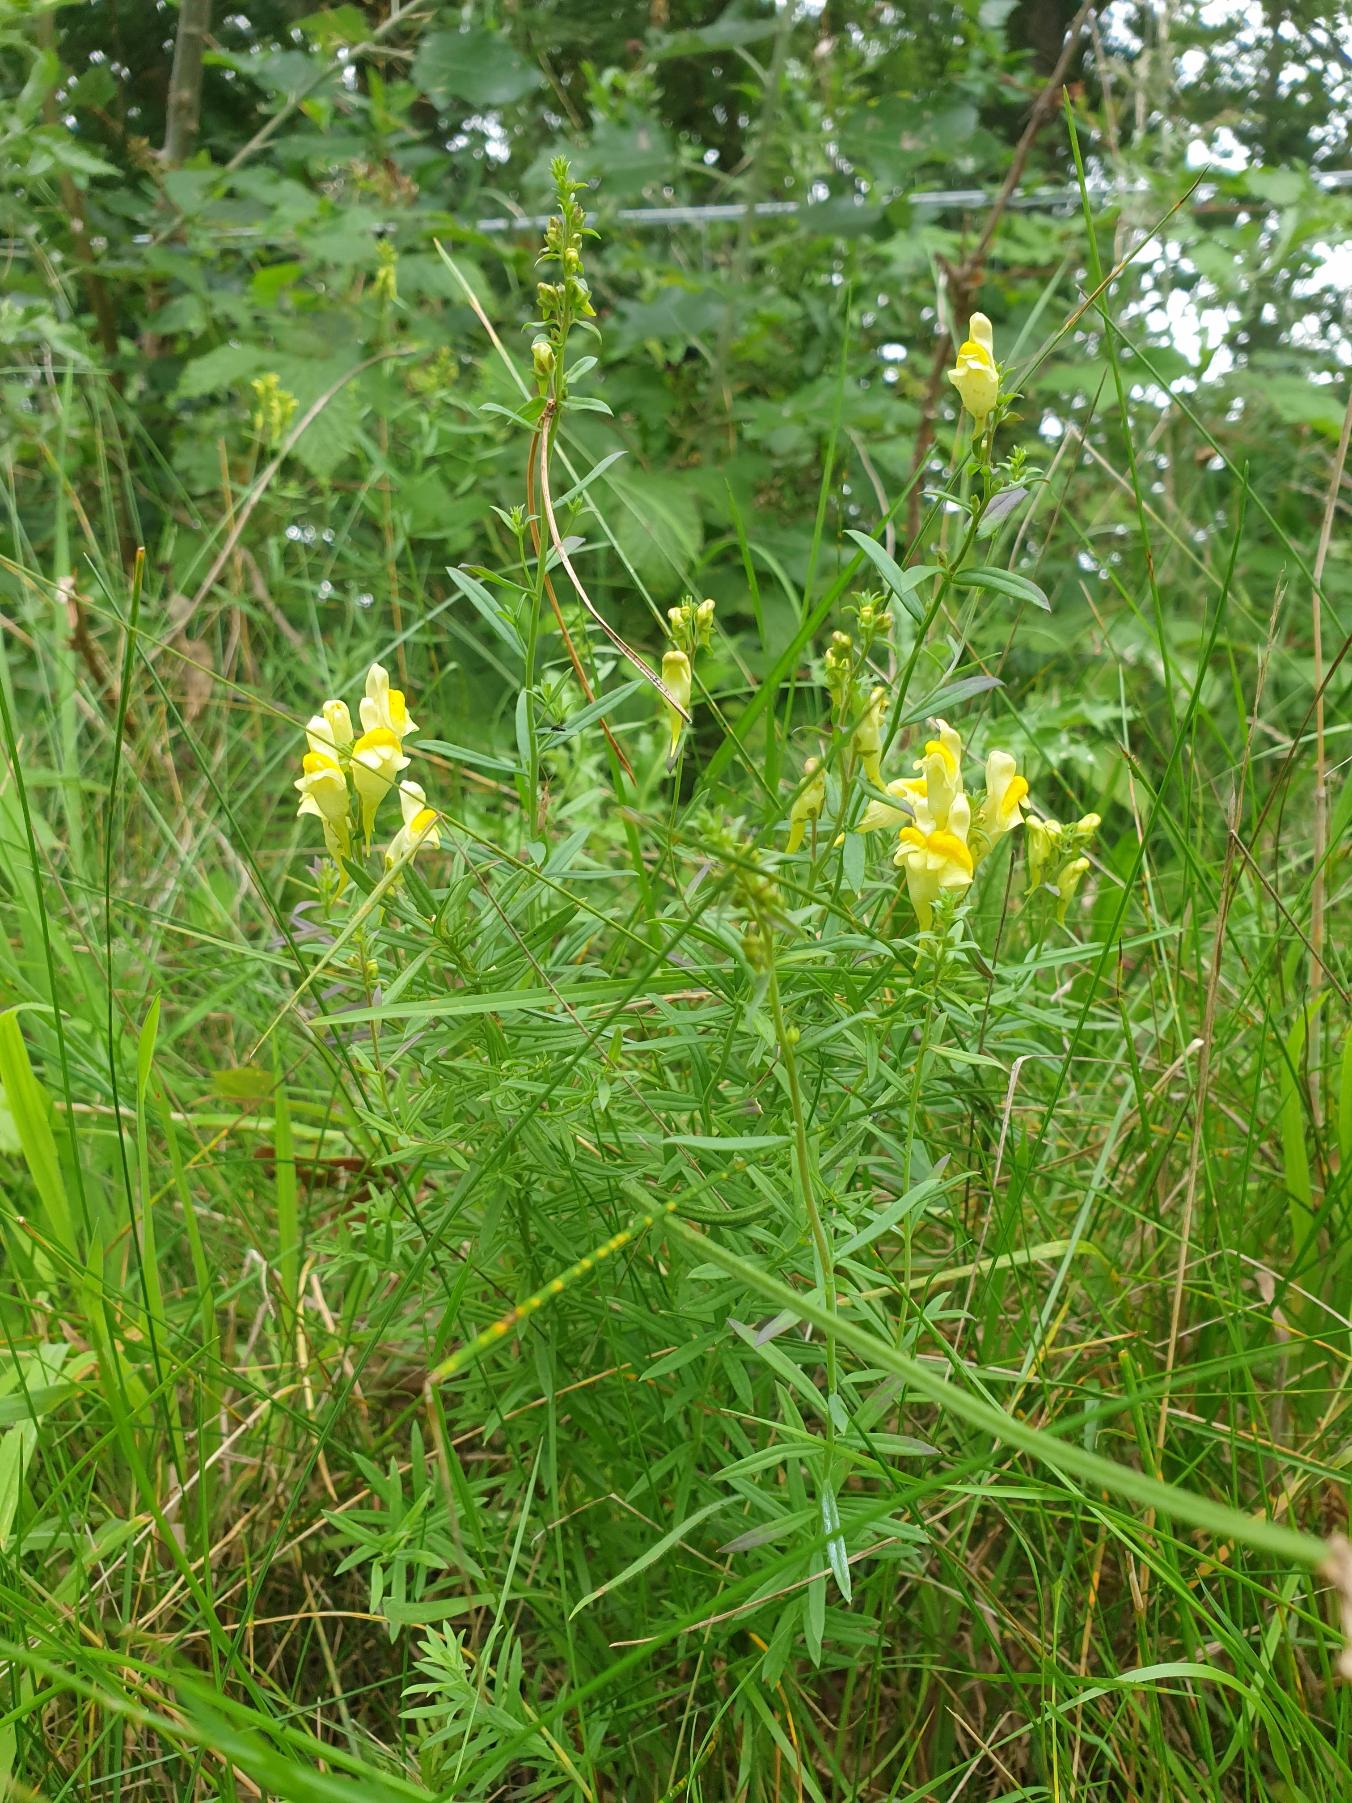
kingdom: Plantae
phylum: Tracheophyta
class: Magnoliopsida
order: Lamiales
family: Plantaginaceae
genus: Linaria
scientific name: Linaria vulgaris
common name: Almindelig torskemund
